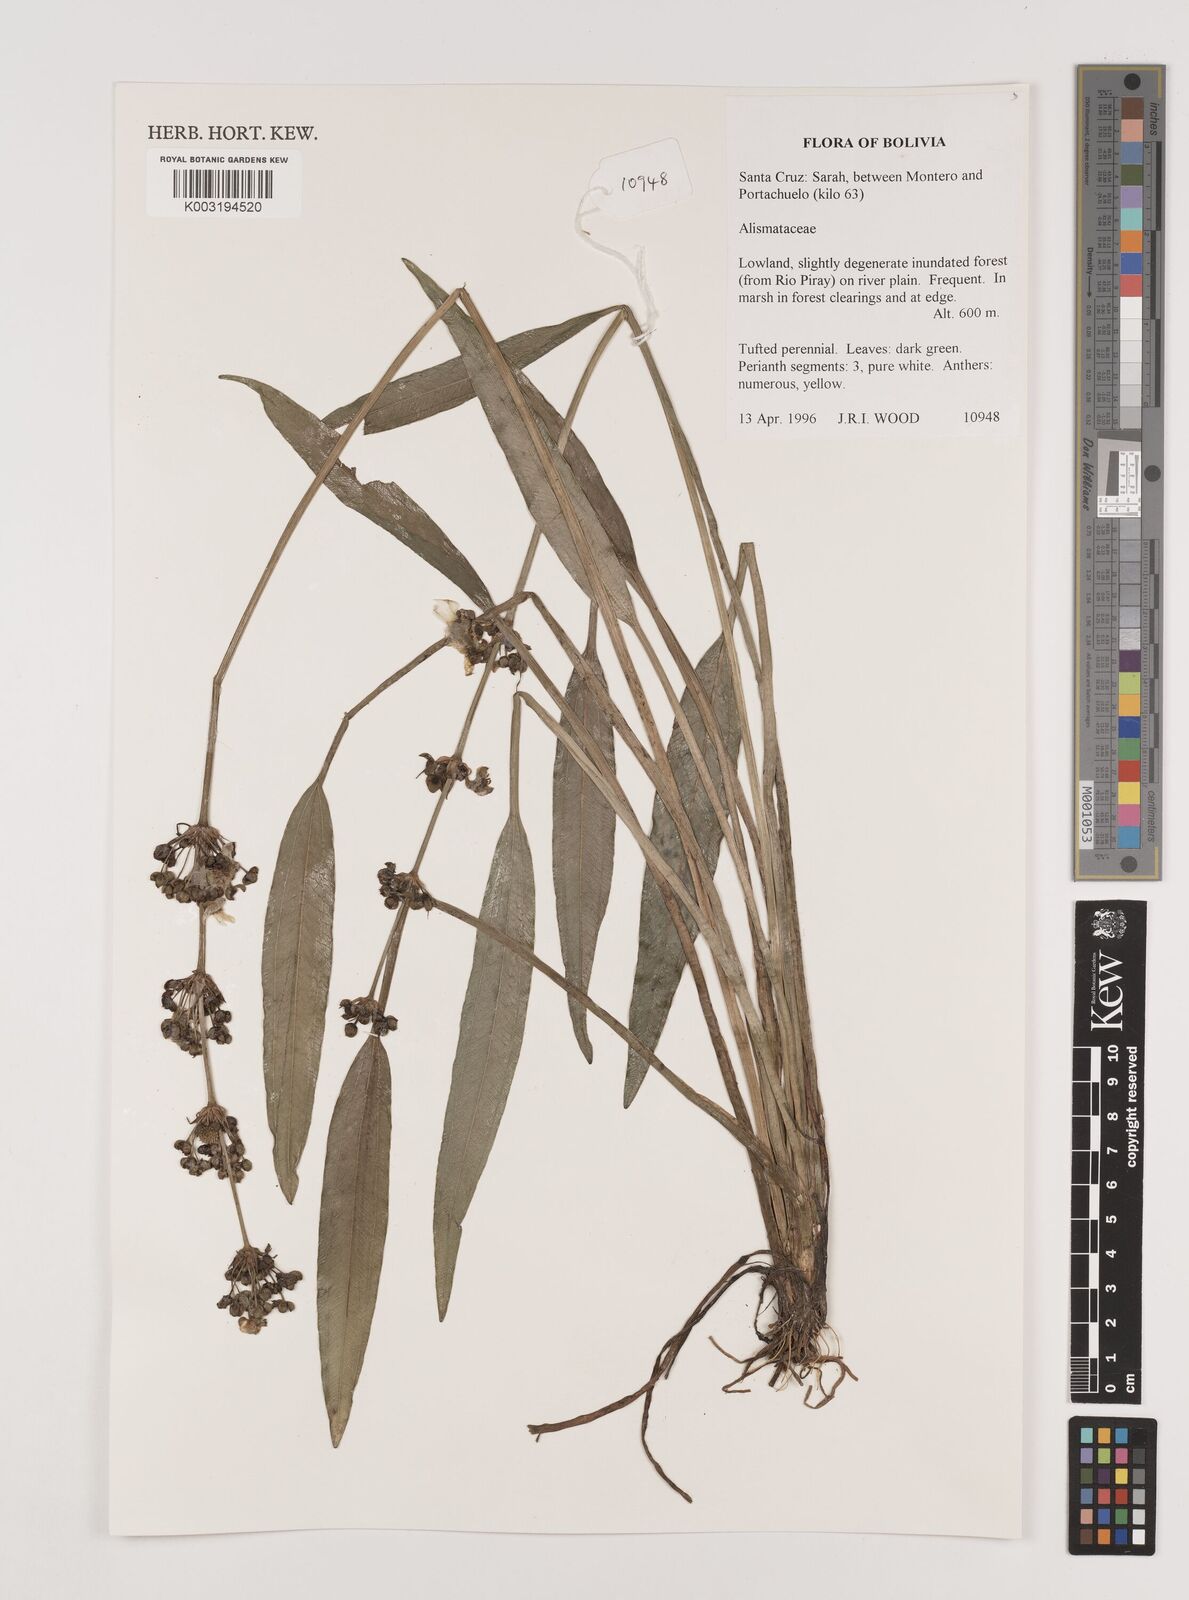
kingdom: Plantae
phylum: Tracheophyta
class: Liliopsida
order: Alismatales
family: Alismataceae
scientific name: Alismataceae
